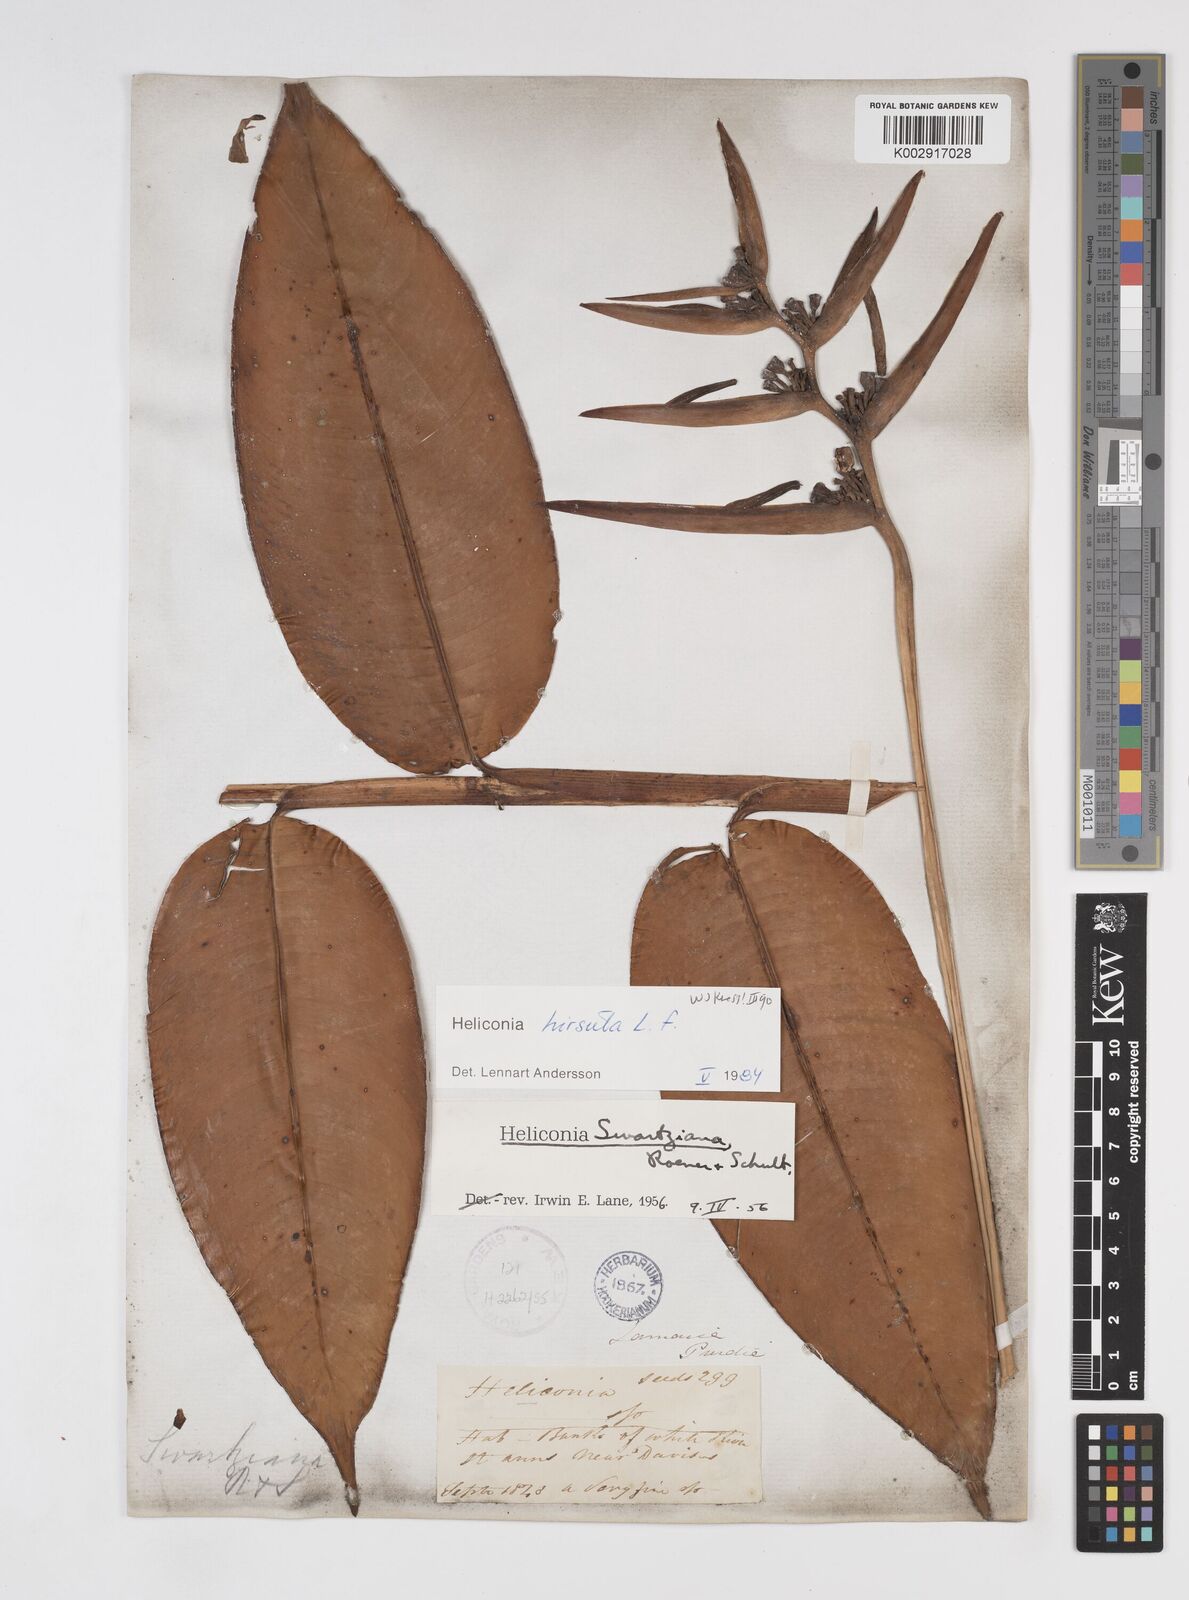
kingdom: Plantae
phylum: Tracheophyta
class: Liliopsida
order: Zingiberales
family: Heliconiaceae
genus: Heliconia
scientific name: Heliconia hirsuta
